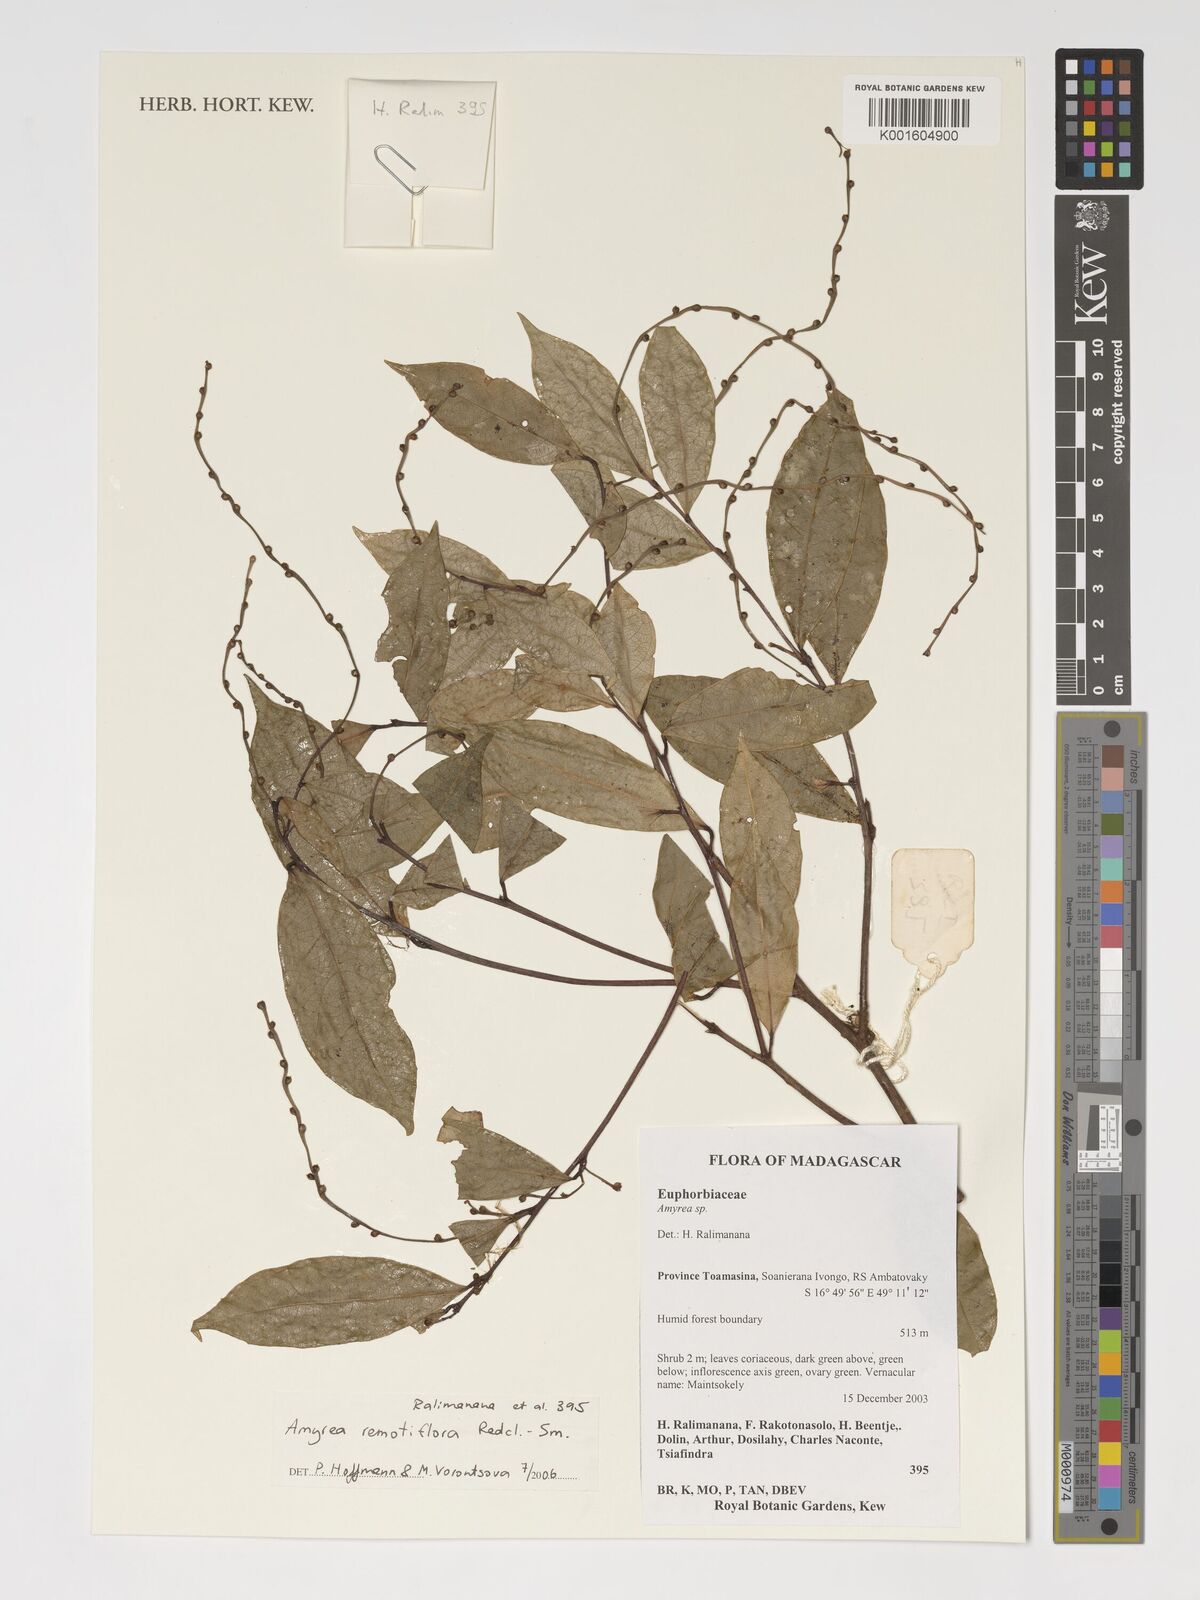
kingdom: Plantae
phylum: Tracheophyta
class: Magnoliopsida
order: Malpighiales
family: Euphorbiaceae
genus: Amyrea
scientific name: Amyrea
